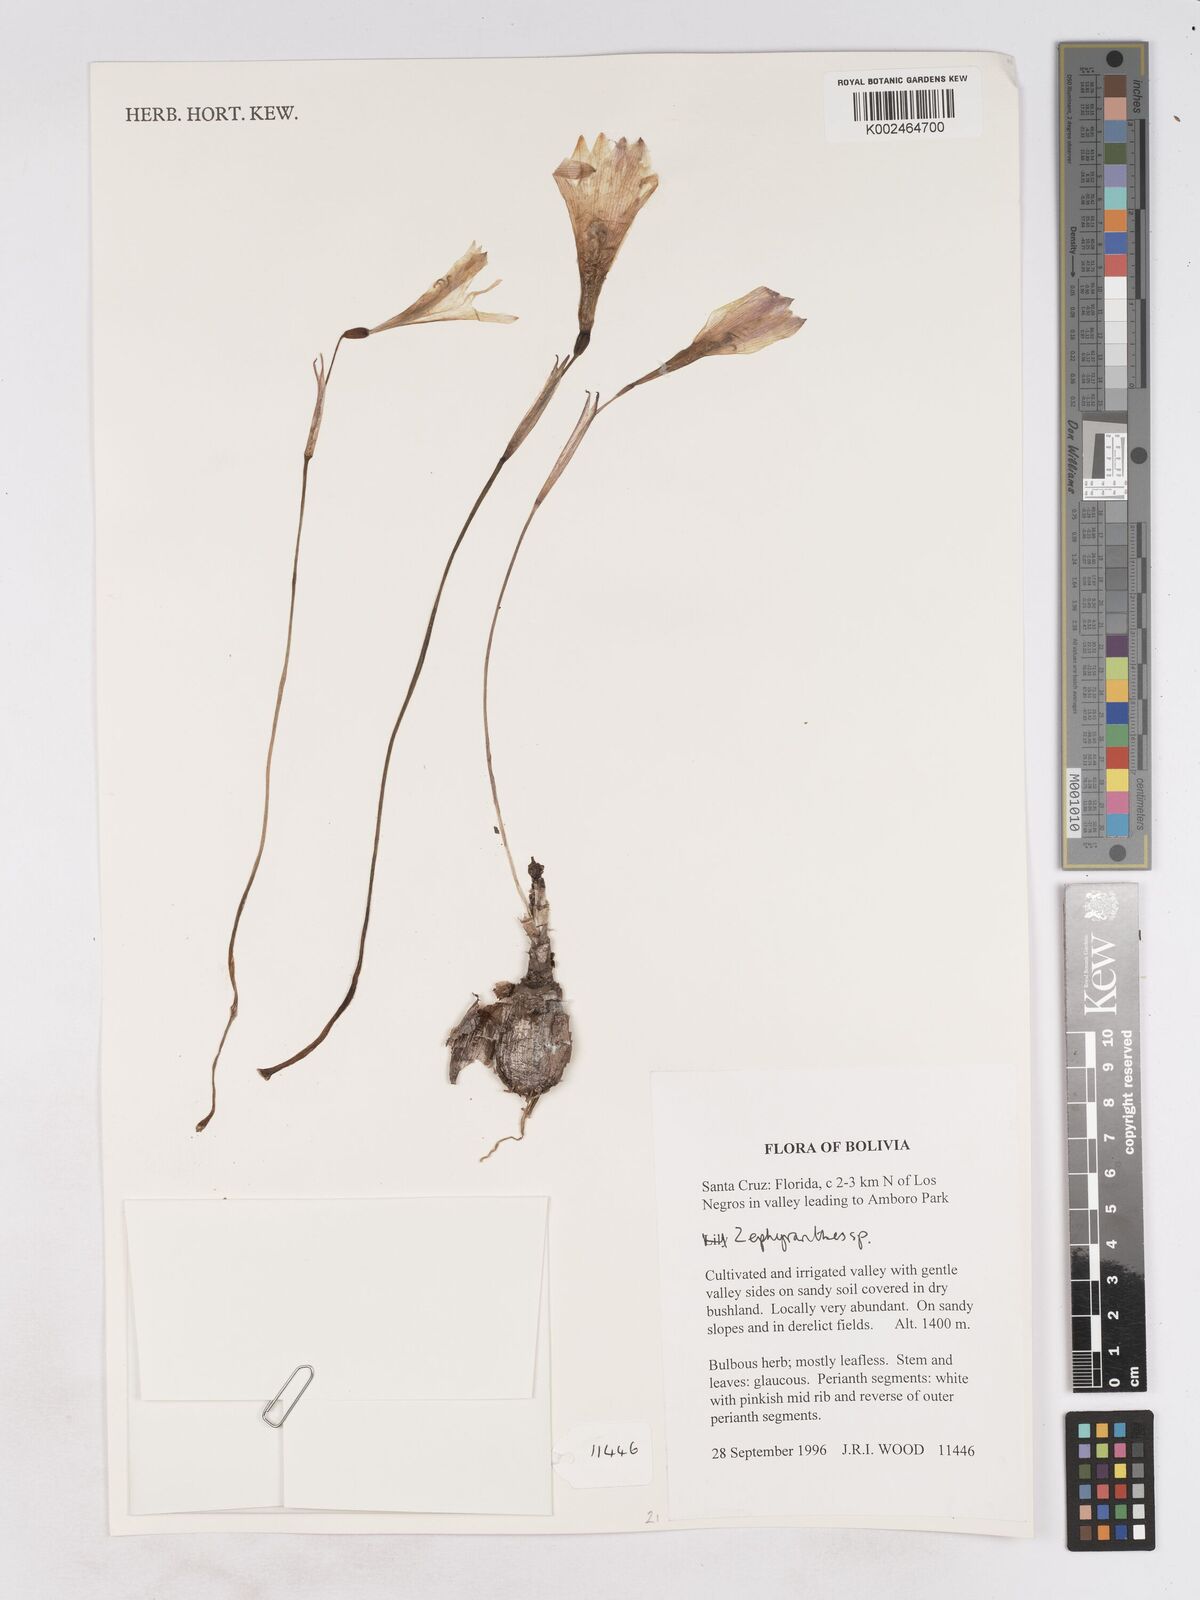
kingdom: Plantae
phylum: Tracheophyta
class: Liliopsida
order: Asparagales
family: Amaryllidaceae
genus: Zephyranthes
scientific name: Zephyranthes
